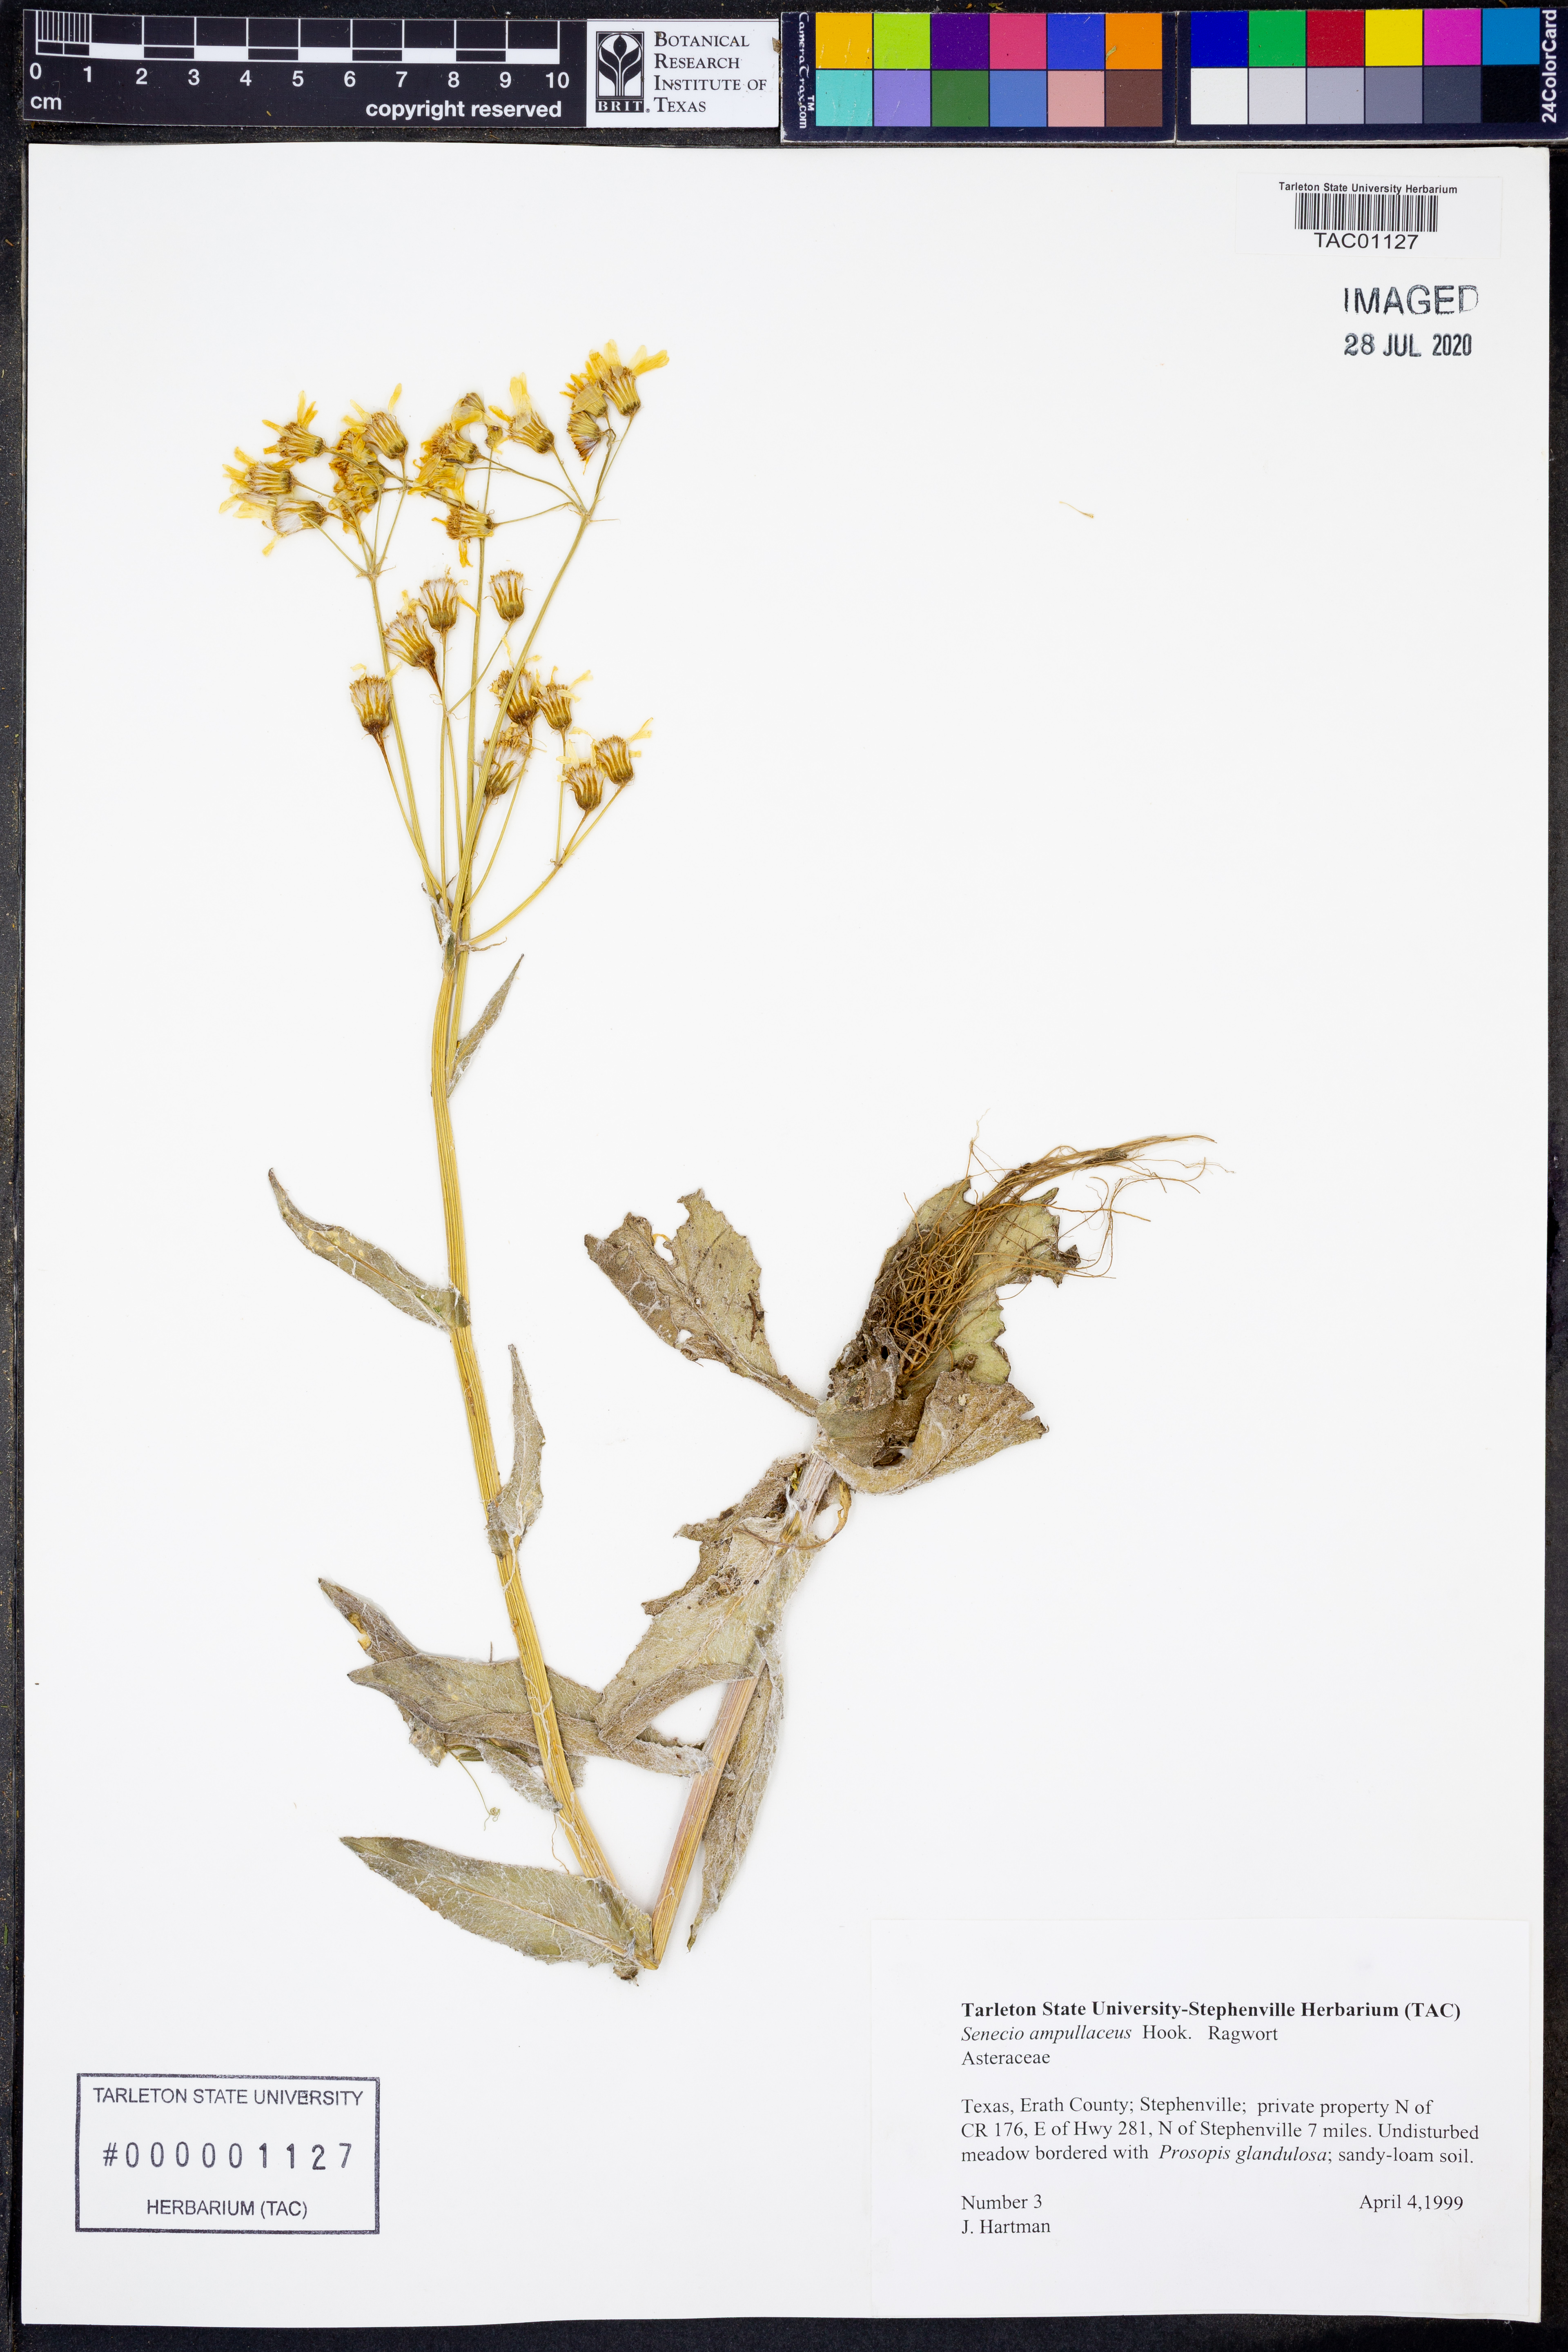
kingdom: Plantae
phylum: Tracheophyta
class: Magnoliopsida
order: Asterales
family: Asteraceae
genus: Senecio
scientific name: Senecio ampullaceus
